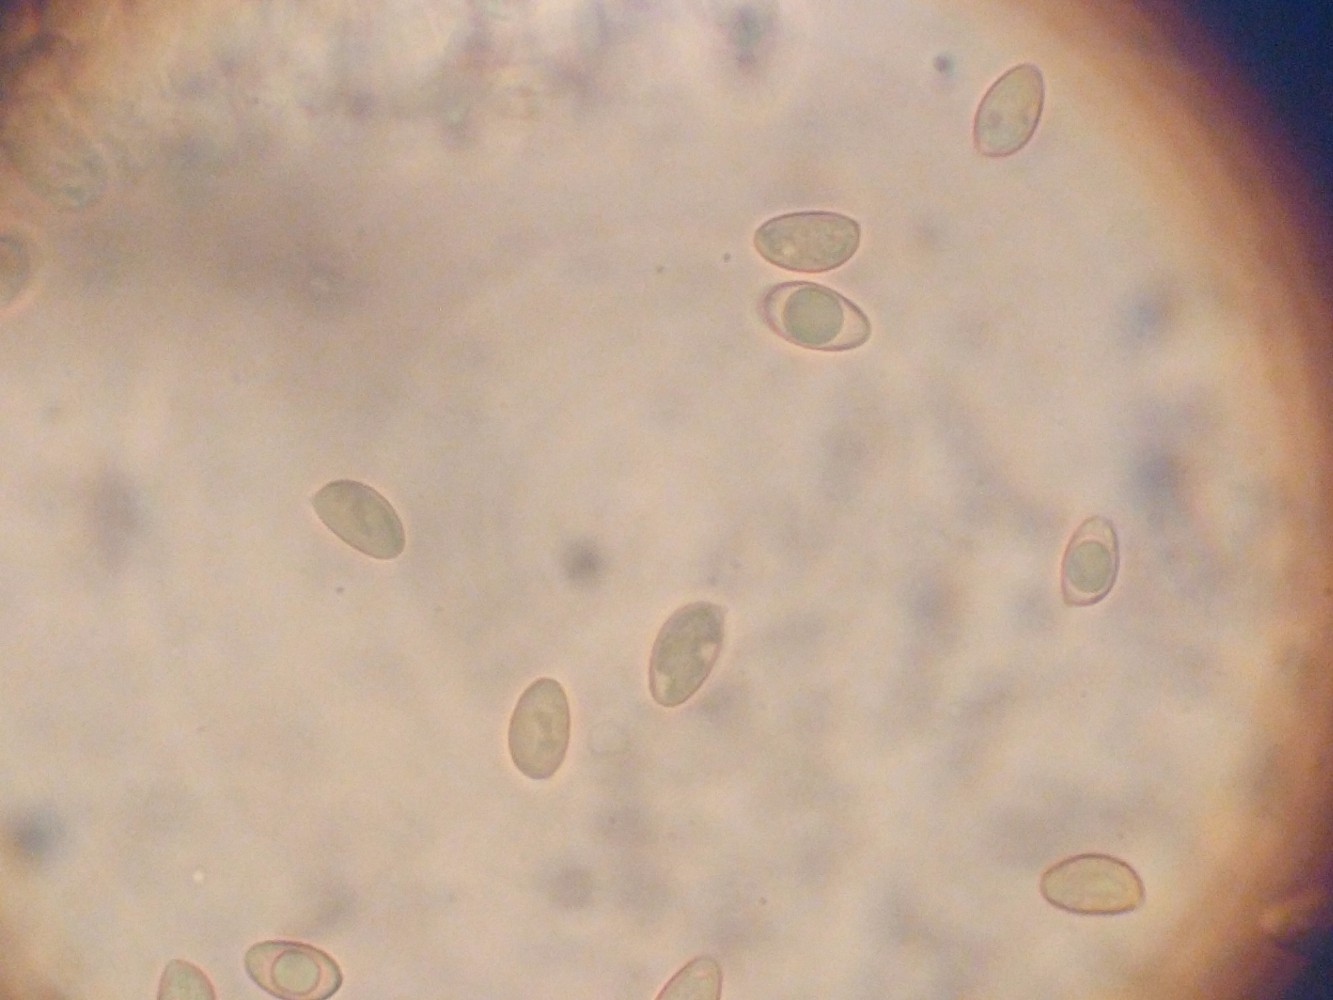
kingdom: Fungi
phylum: Basidiomycota
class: Agaricomycetes
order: Agaricales
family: Hymenogastraceae
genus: Hebeloma
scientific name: Hebeloma mesophaeum
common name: lerbrun tåreblad
